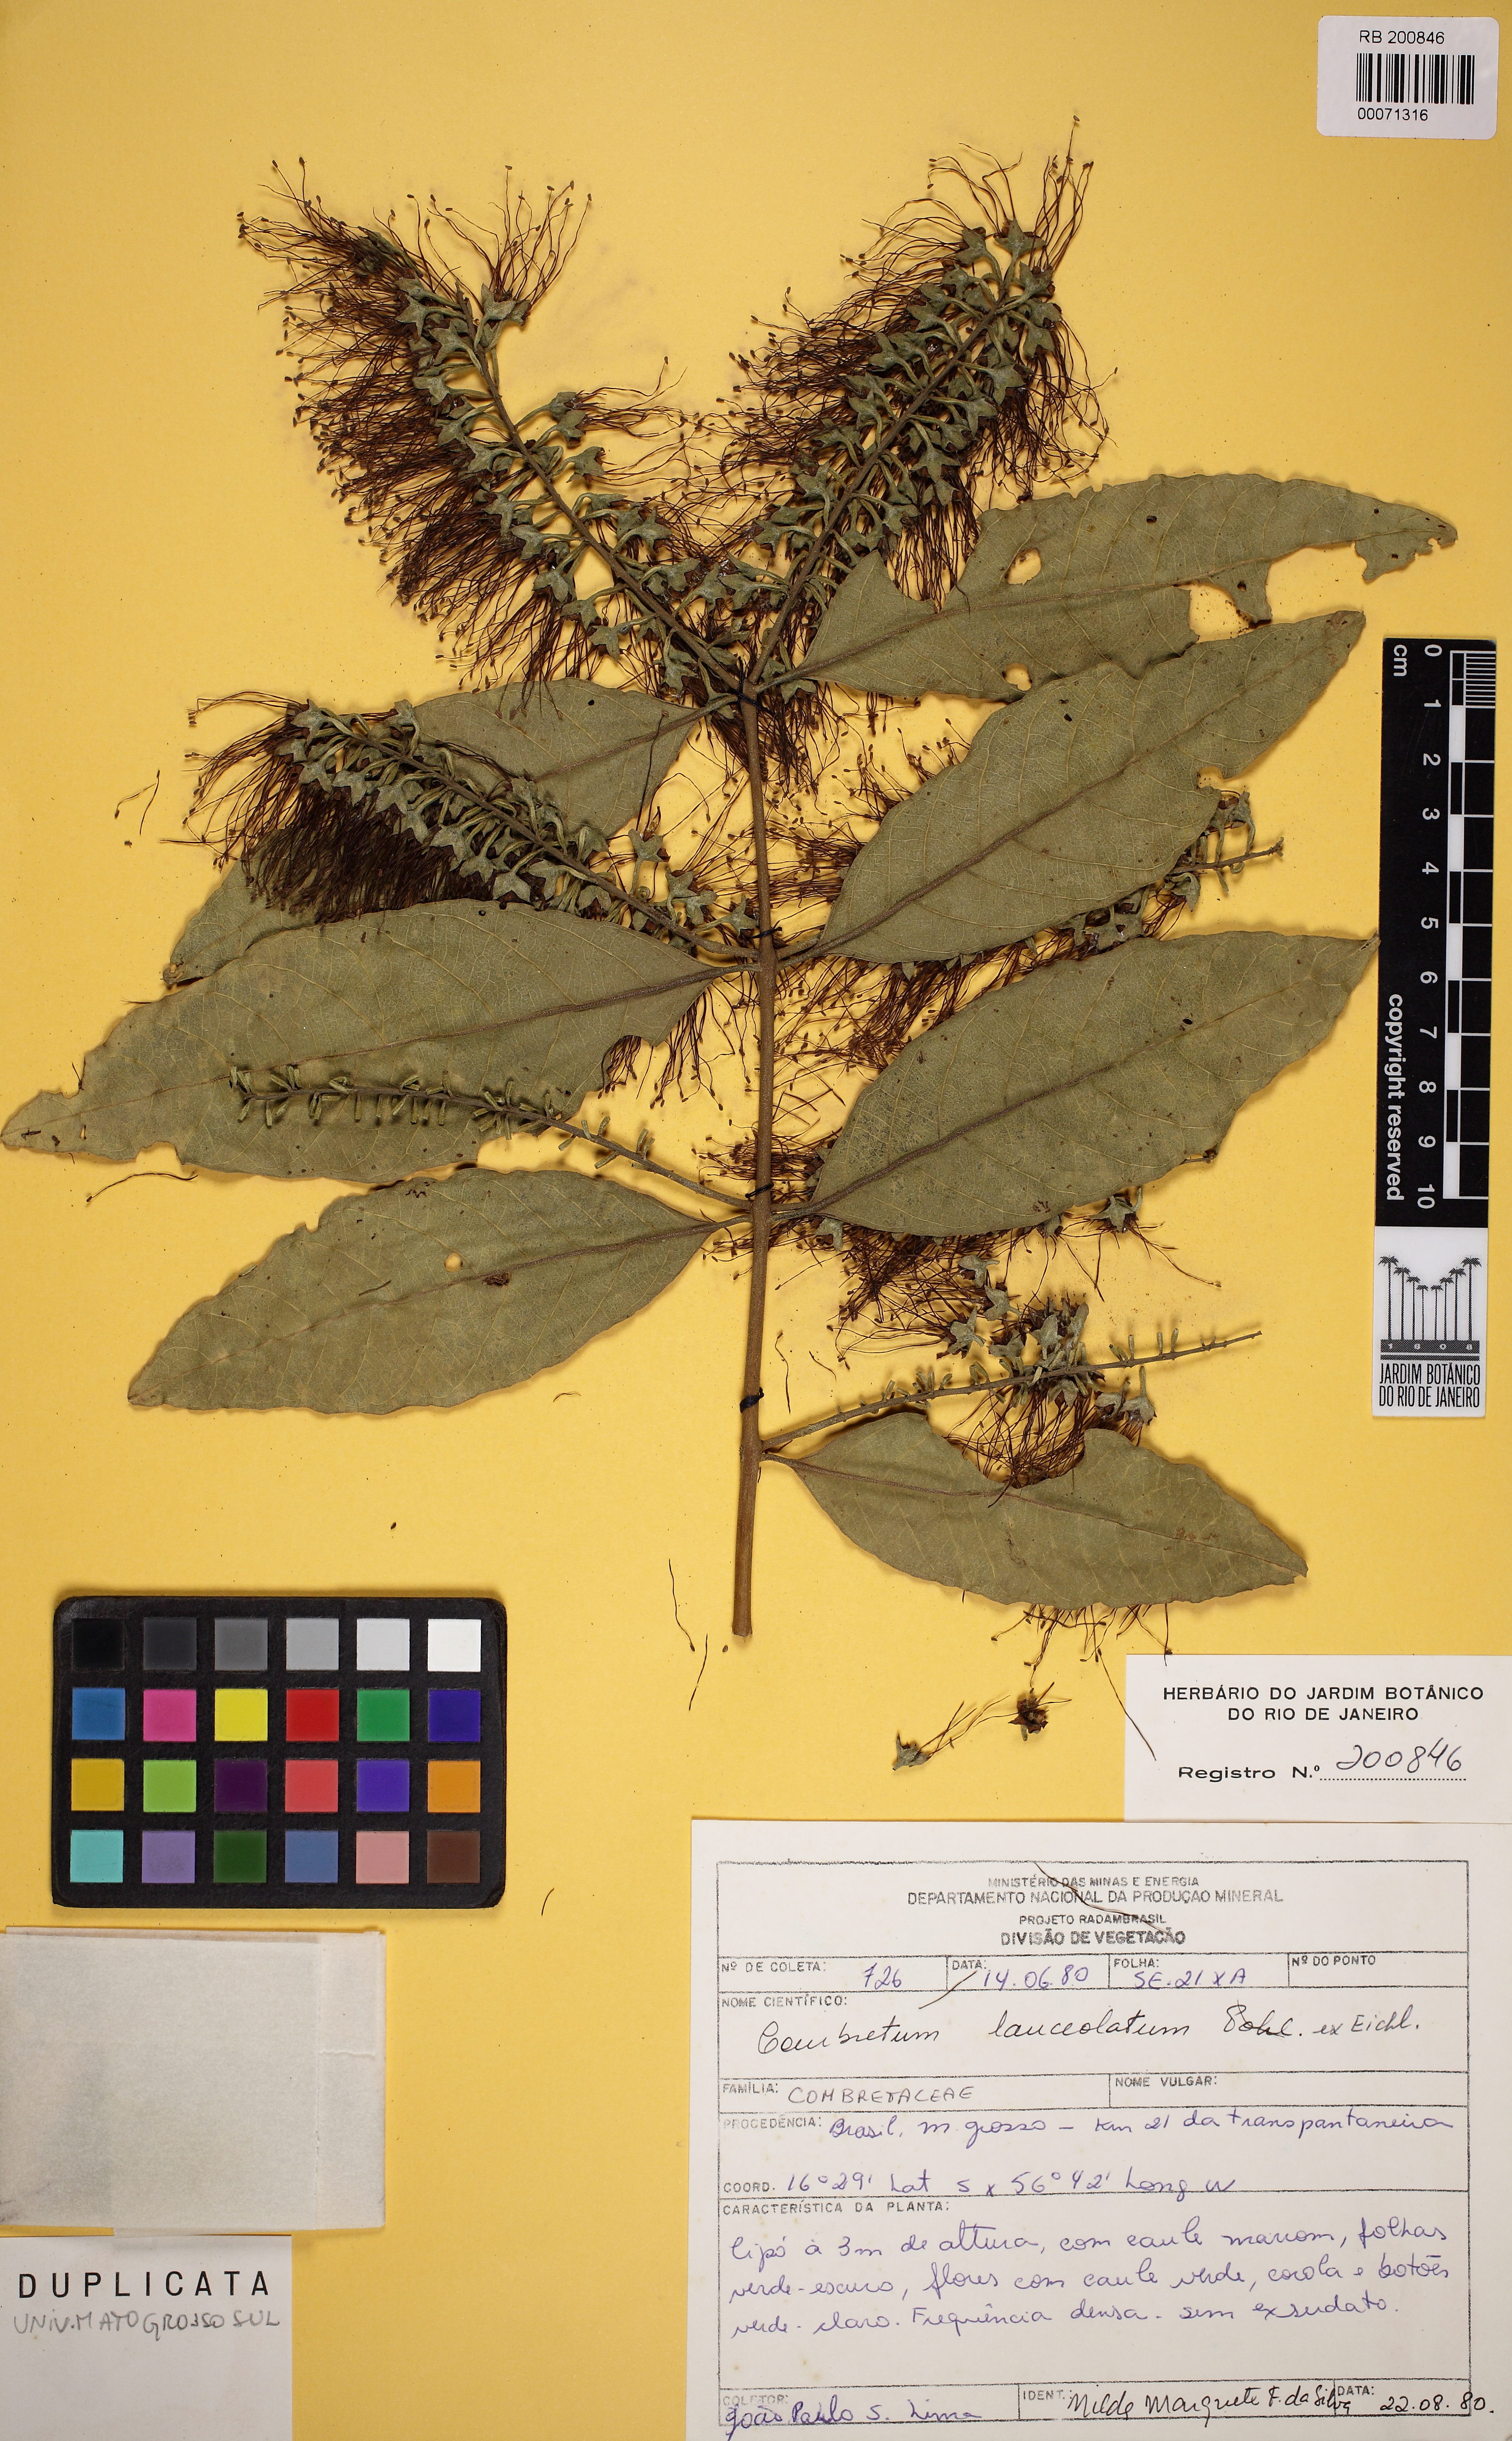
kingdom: Plantae
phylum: Tracheophyta
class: Magnoliopsida
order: Myrtales
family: Combretaceae
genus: Combretum
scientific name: Combretum lanceolatum
